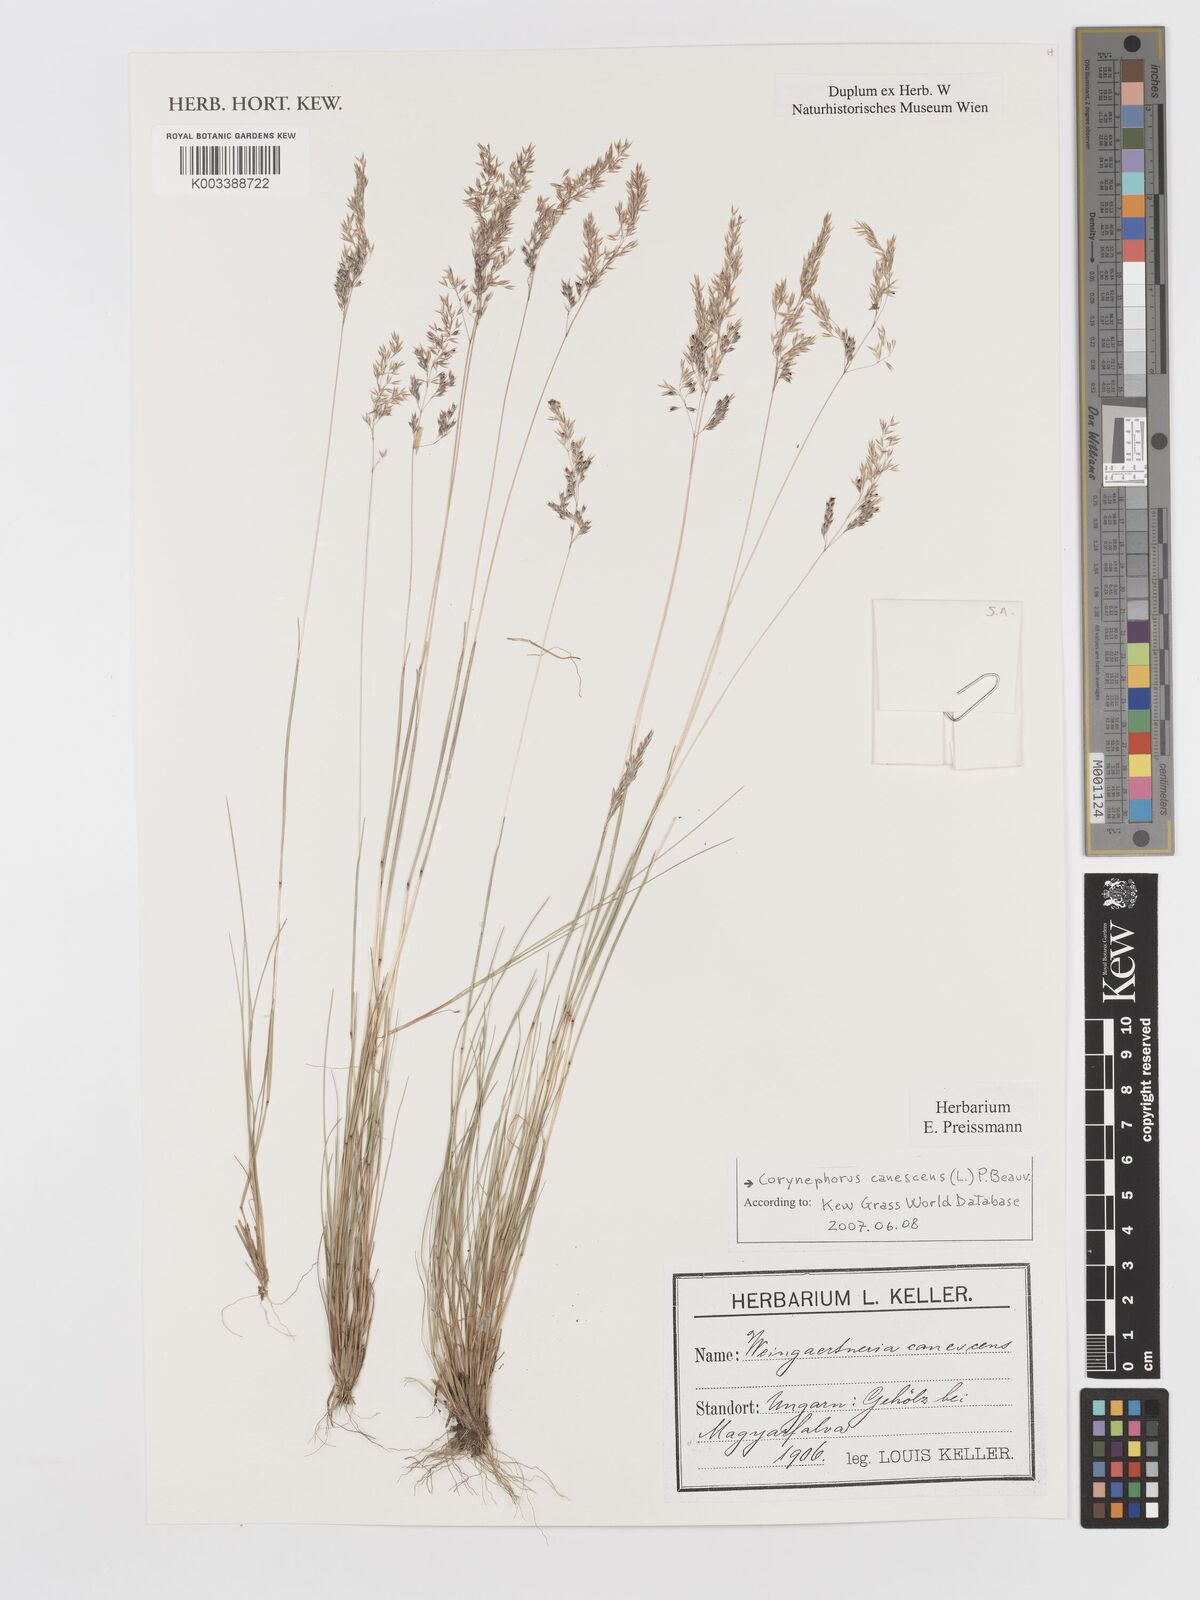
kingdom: Plantae
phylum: Tracheophyta
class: Liliopsida
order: Poales
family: Poaceae
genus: Corynephorus
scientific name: Corynephorus canescens
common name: Grey hair-grass
